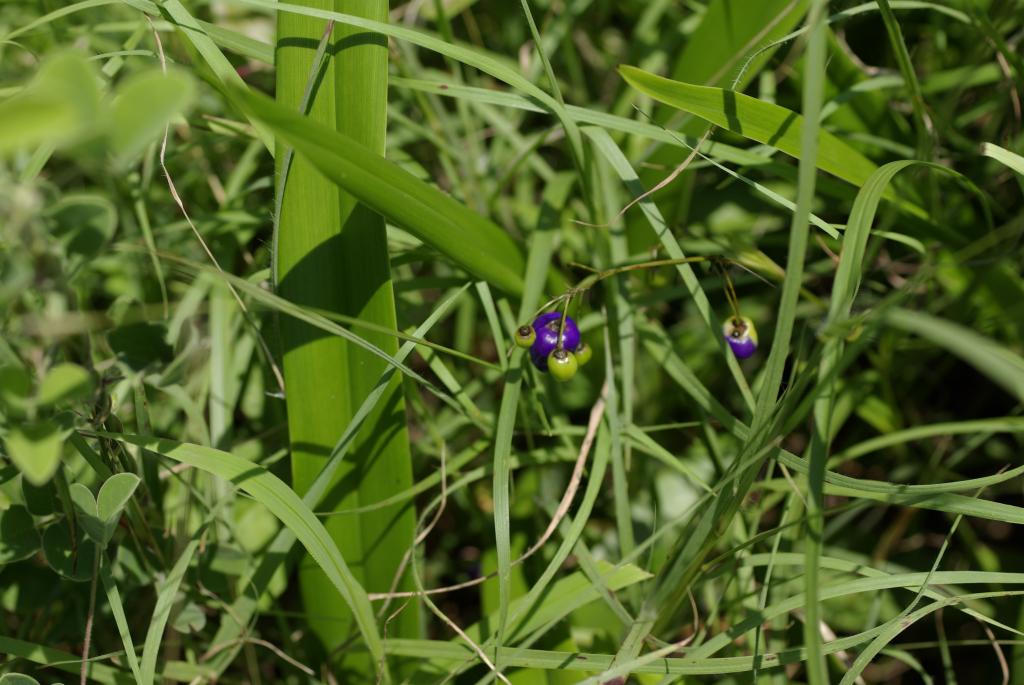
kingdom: Plantae
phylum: Tracheophyta
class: Liliopsida
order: Asparagales
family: Asphodelaceae
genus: Dianella
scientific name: Dianella ensifolia
